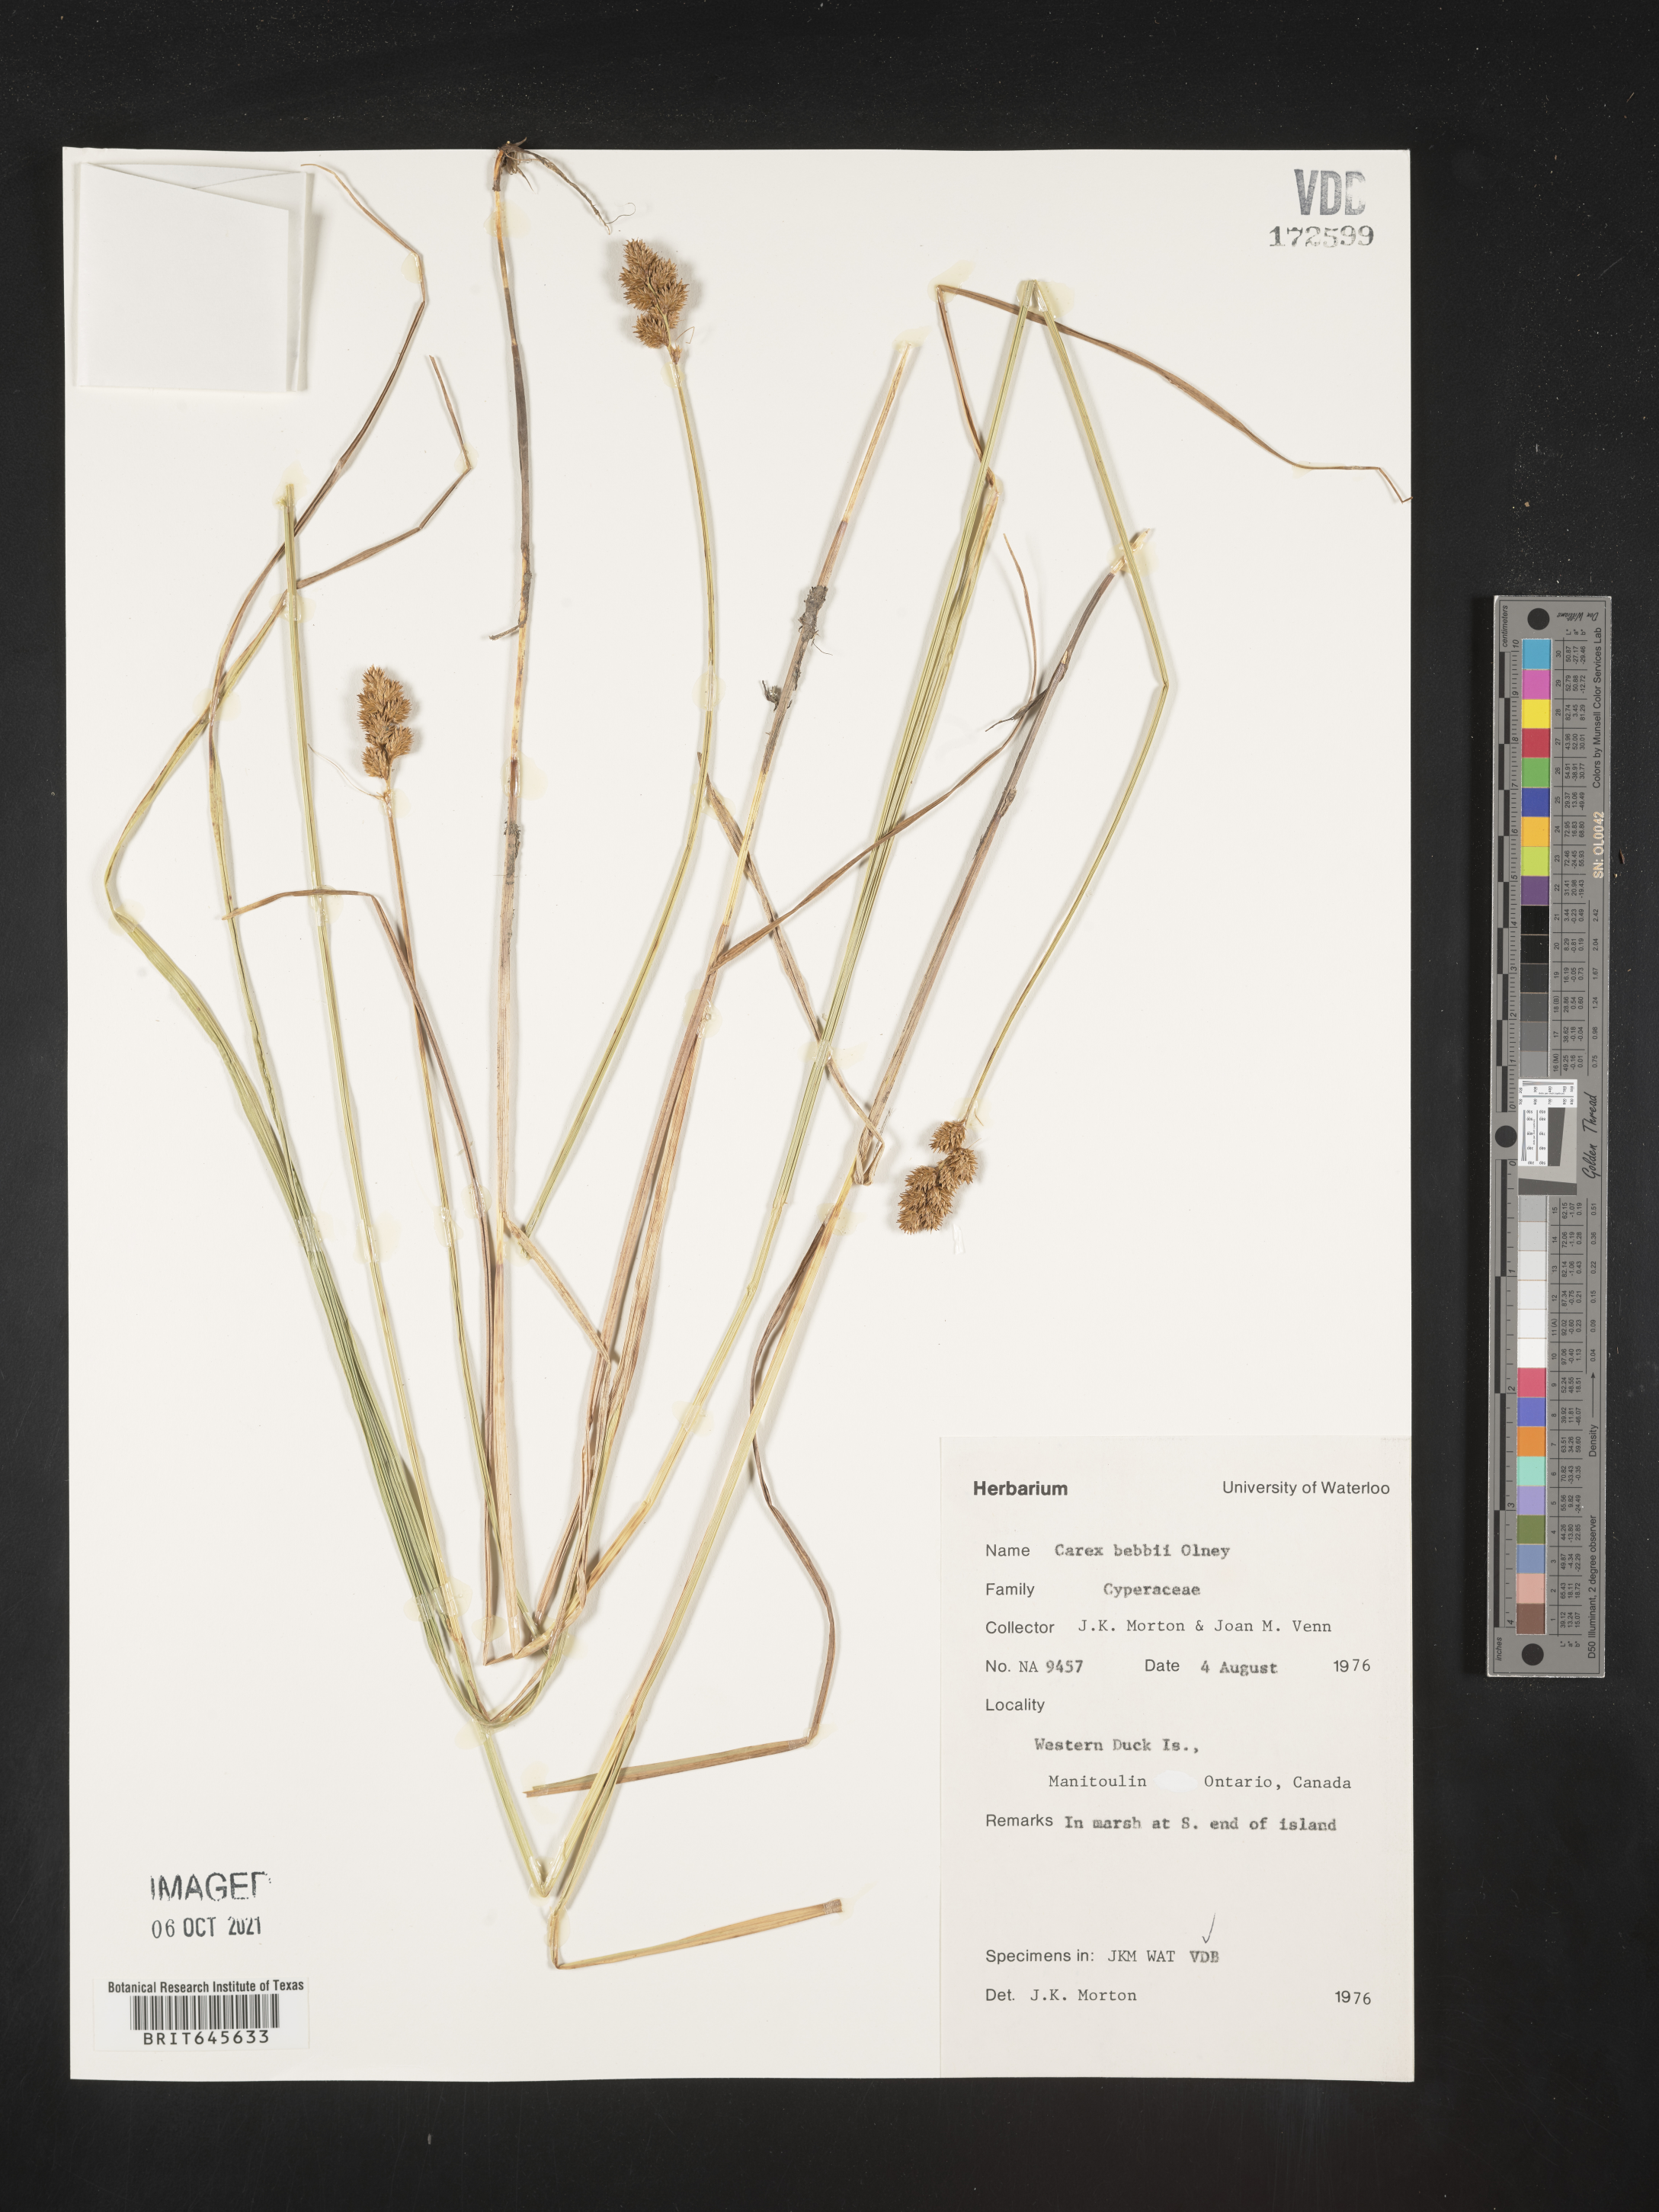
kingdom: Plantae
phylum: Tracheophyta
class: Liliopsida
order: Poales
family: Cyperaceae
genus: Carex
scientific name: Carex bebbii
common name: Bebb's sedge
